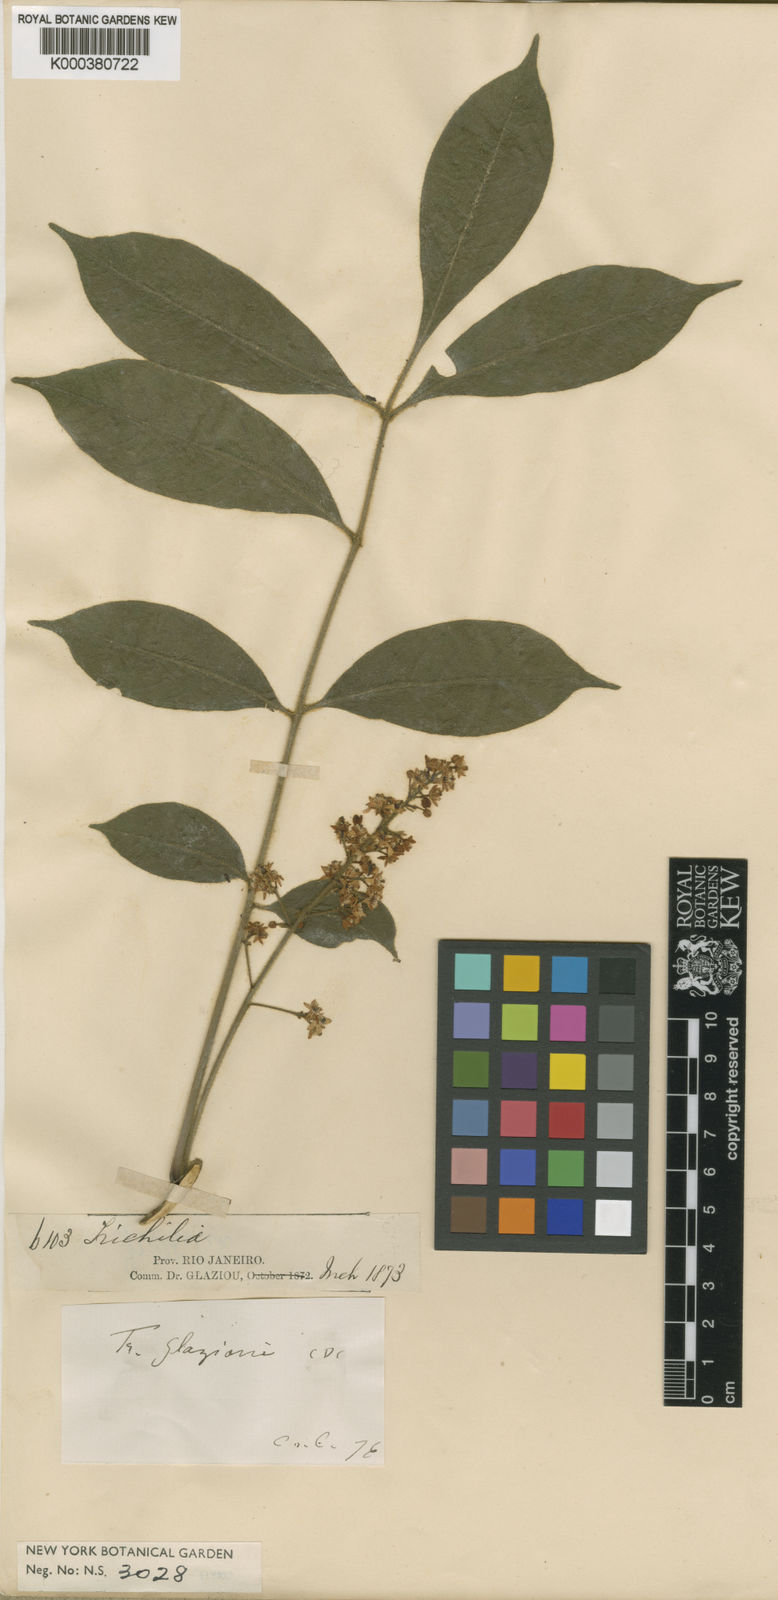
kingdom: Plantae
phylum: Tracheophyta
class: Magnoliopsida
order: Sapindales
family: Meliaceae
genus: Trichilia
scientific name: Trichilia hirta
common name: Red-cedar
